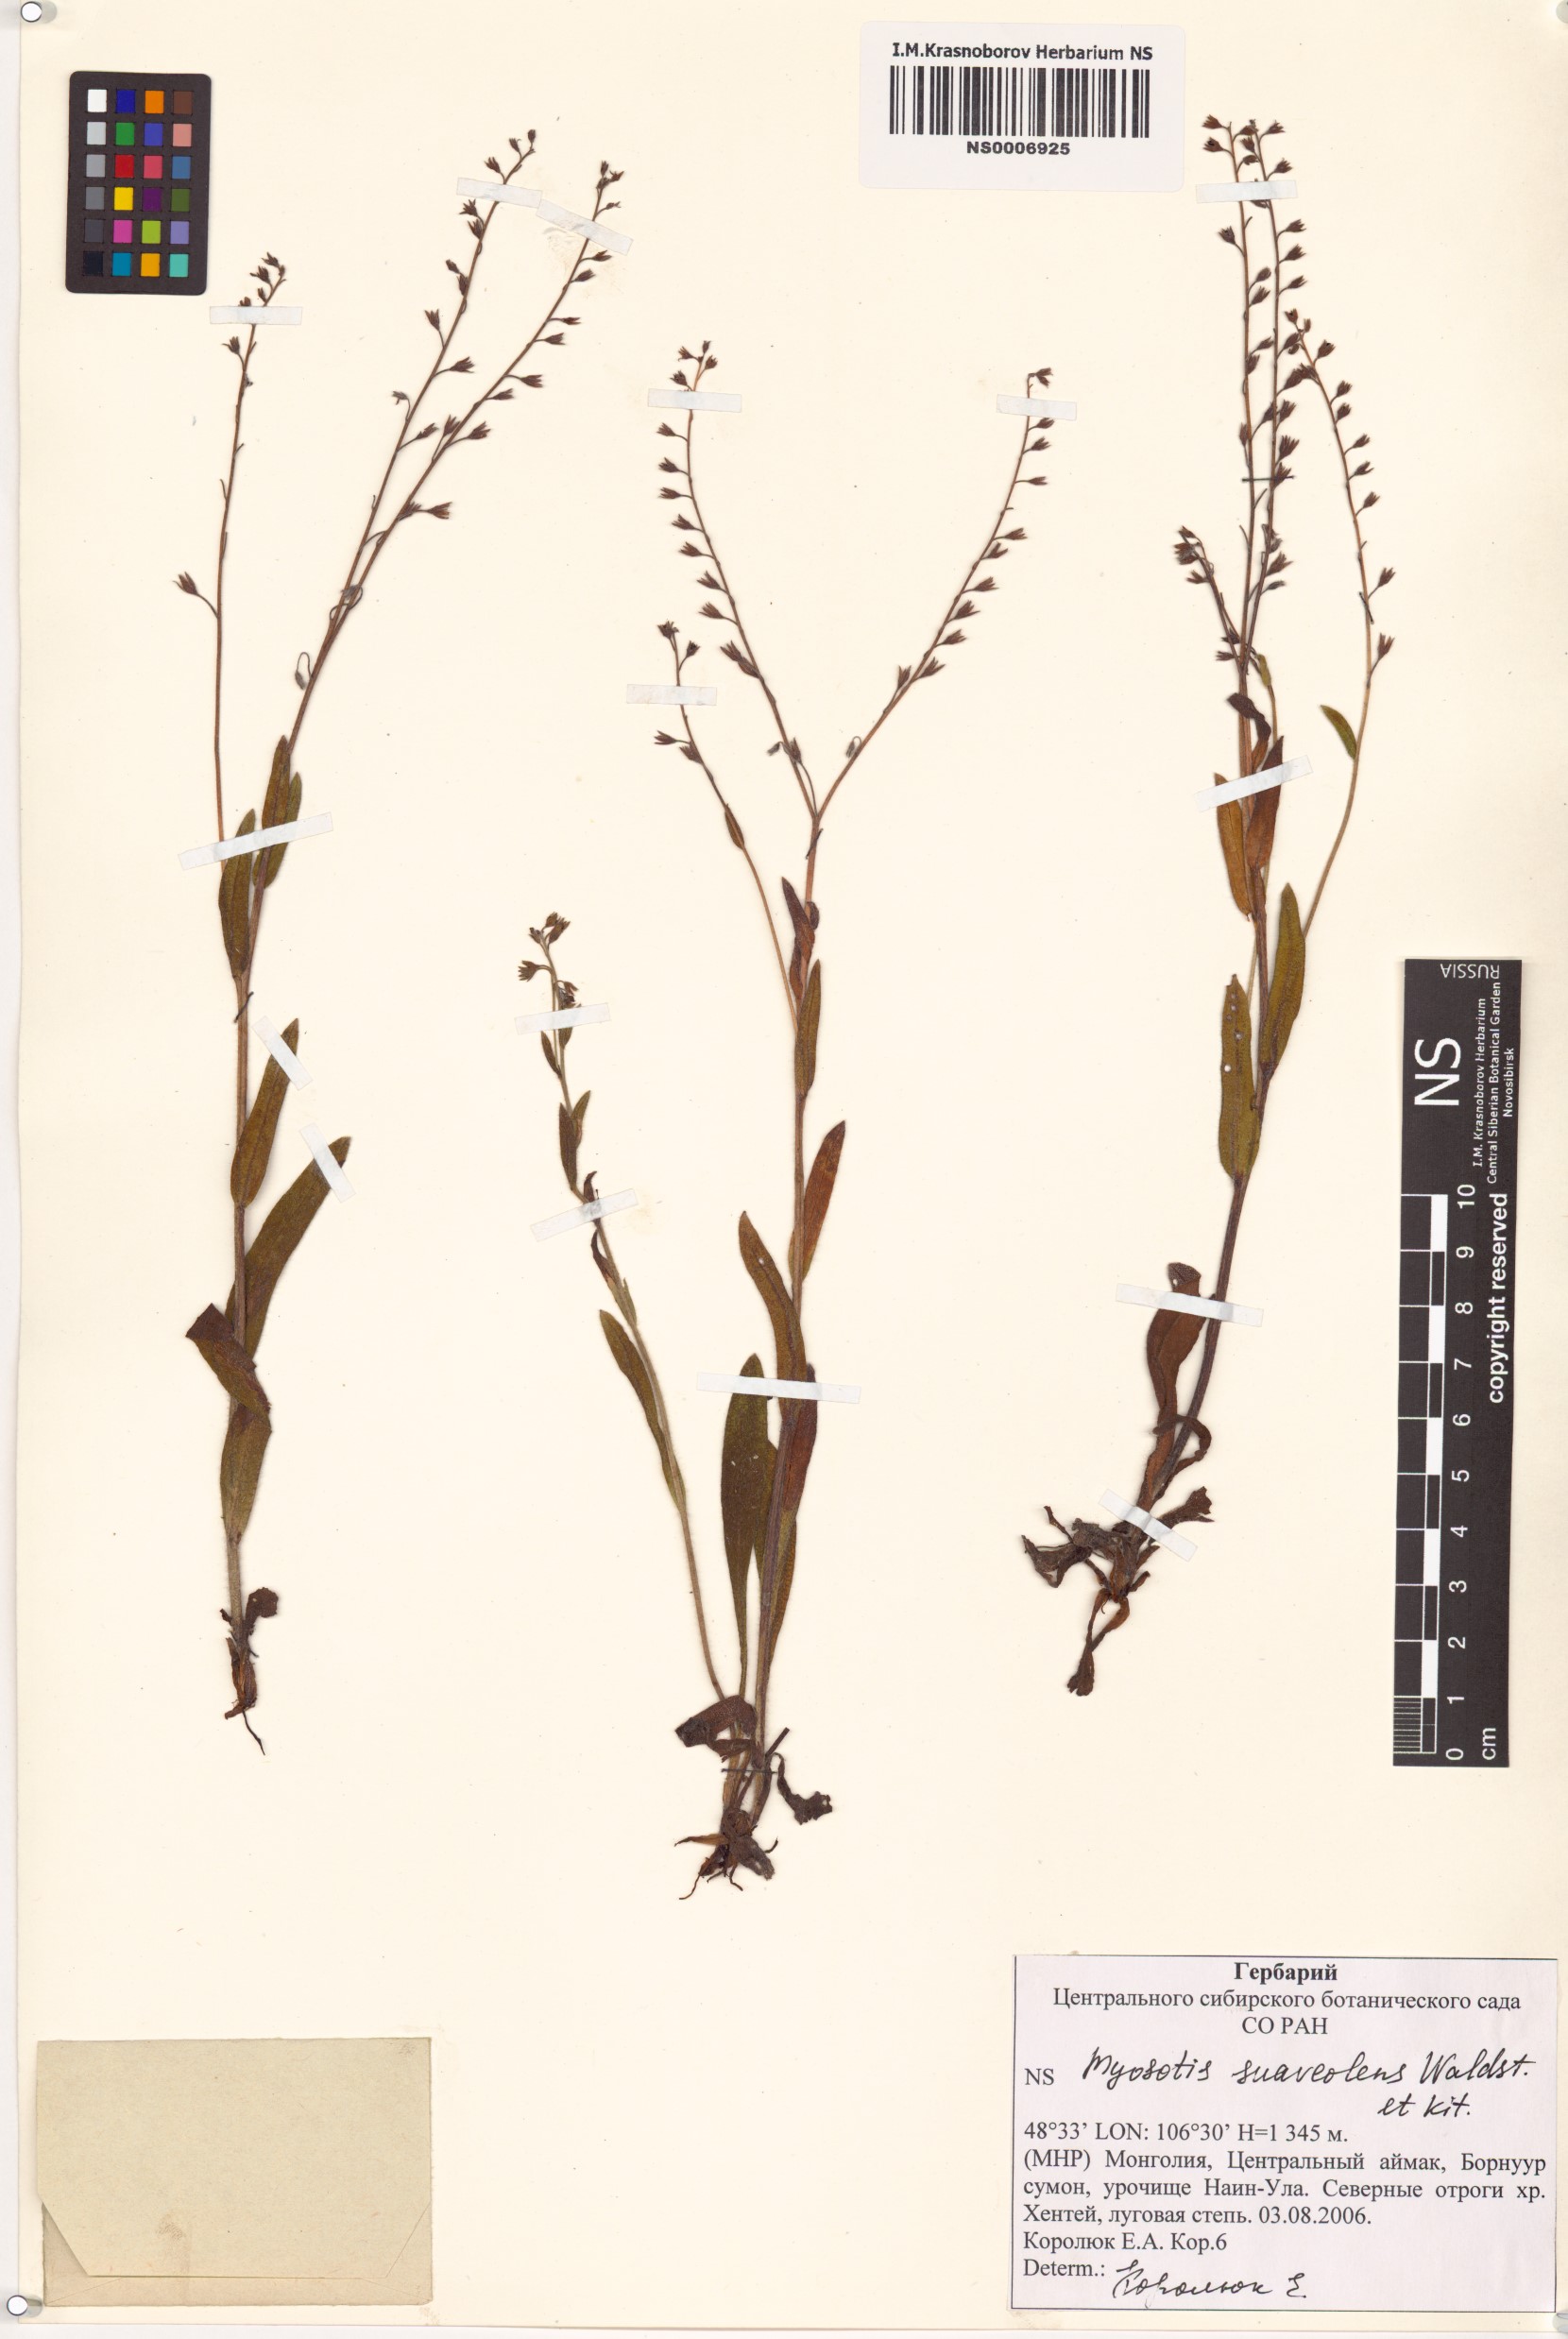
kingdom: Plantae
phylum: Tracheophyta
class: Magnoliopsida
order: Boraginales
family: Boraginaceae
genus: Myosotis
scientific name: Myosotis alpestris
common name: Alpine forget-me-not
